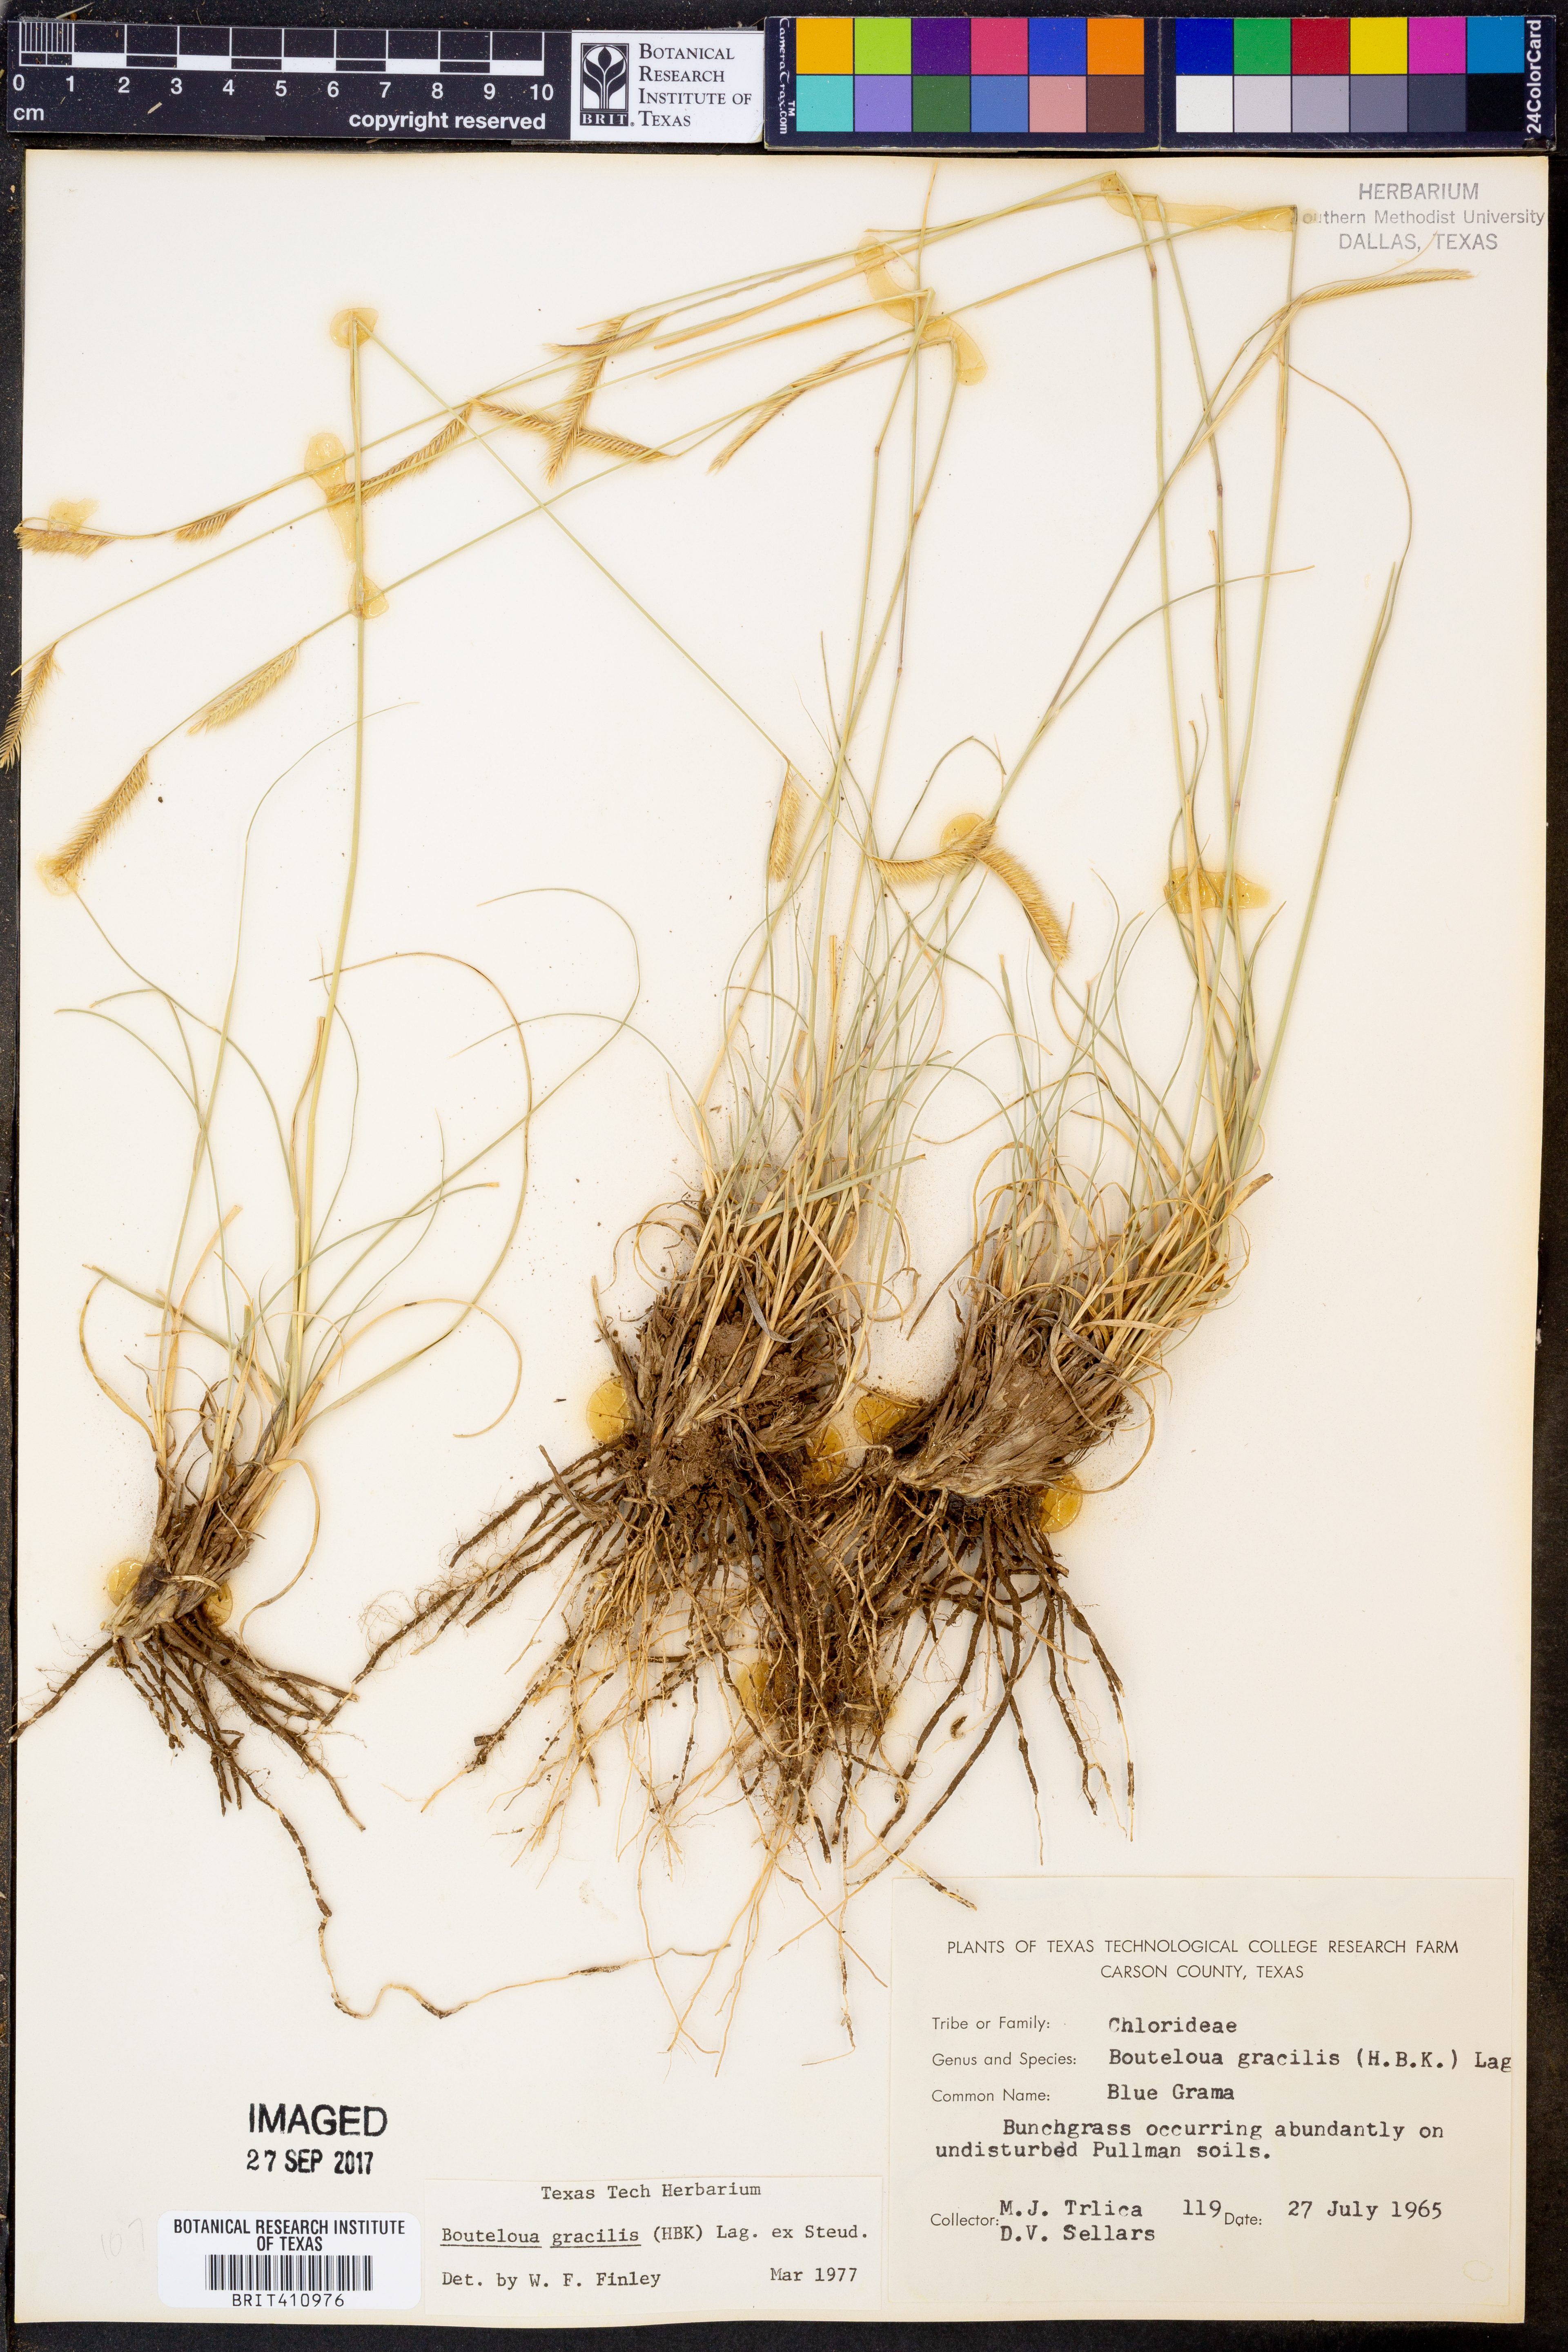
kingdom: Plantae
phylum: Tracheophyta
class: Liliopsida
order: Poales
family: Poaceae
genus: Bouteloua
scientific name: Bouteloua gracilis
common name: Blue grama
